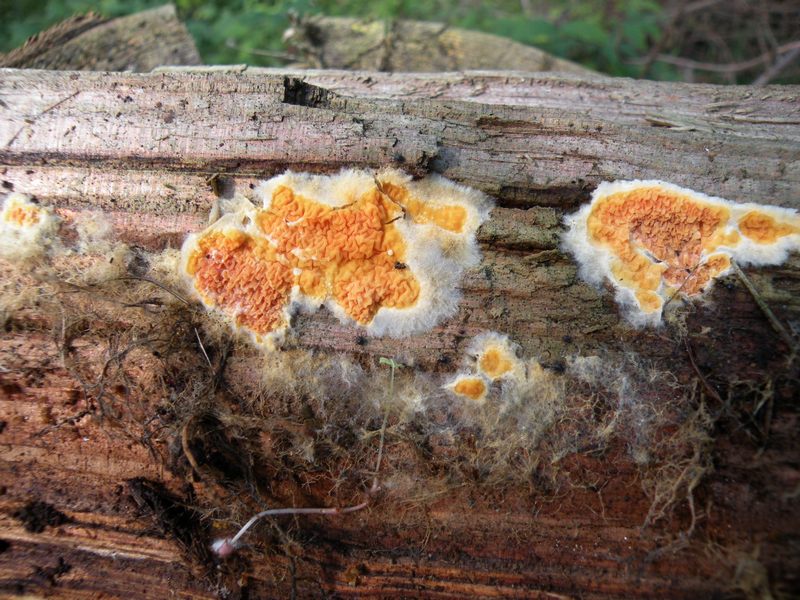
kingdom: Fungi
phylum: Basidiomycota
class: Agaricomycetes
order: Boletales
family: Hygrophoropsidaceae
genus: Leucogyrophana
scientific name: Leucogyrophana sororia
